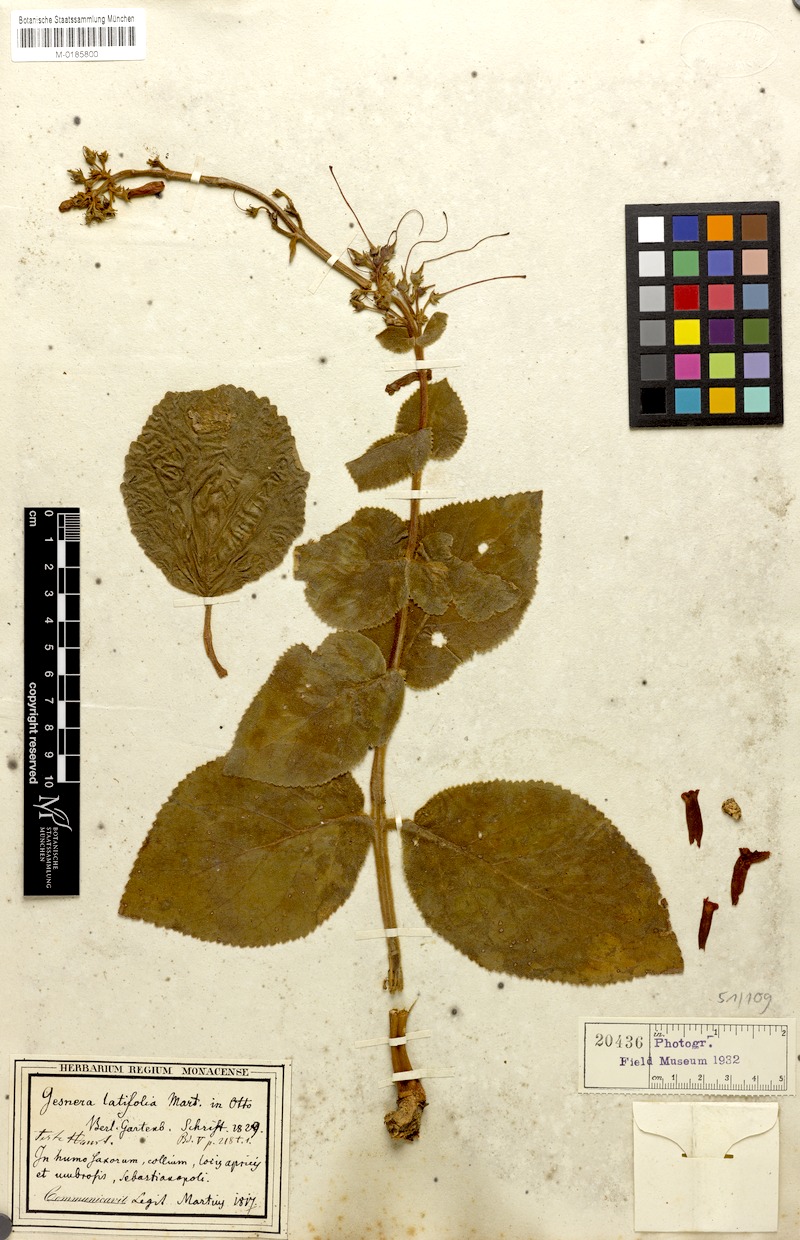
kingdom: Plantae
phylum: Tracheophyta
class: Magnoliopsida
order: Lamiales
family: Gesneriaceae
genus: Sinningia
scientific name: Sinningia bulbosa
